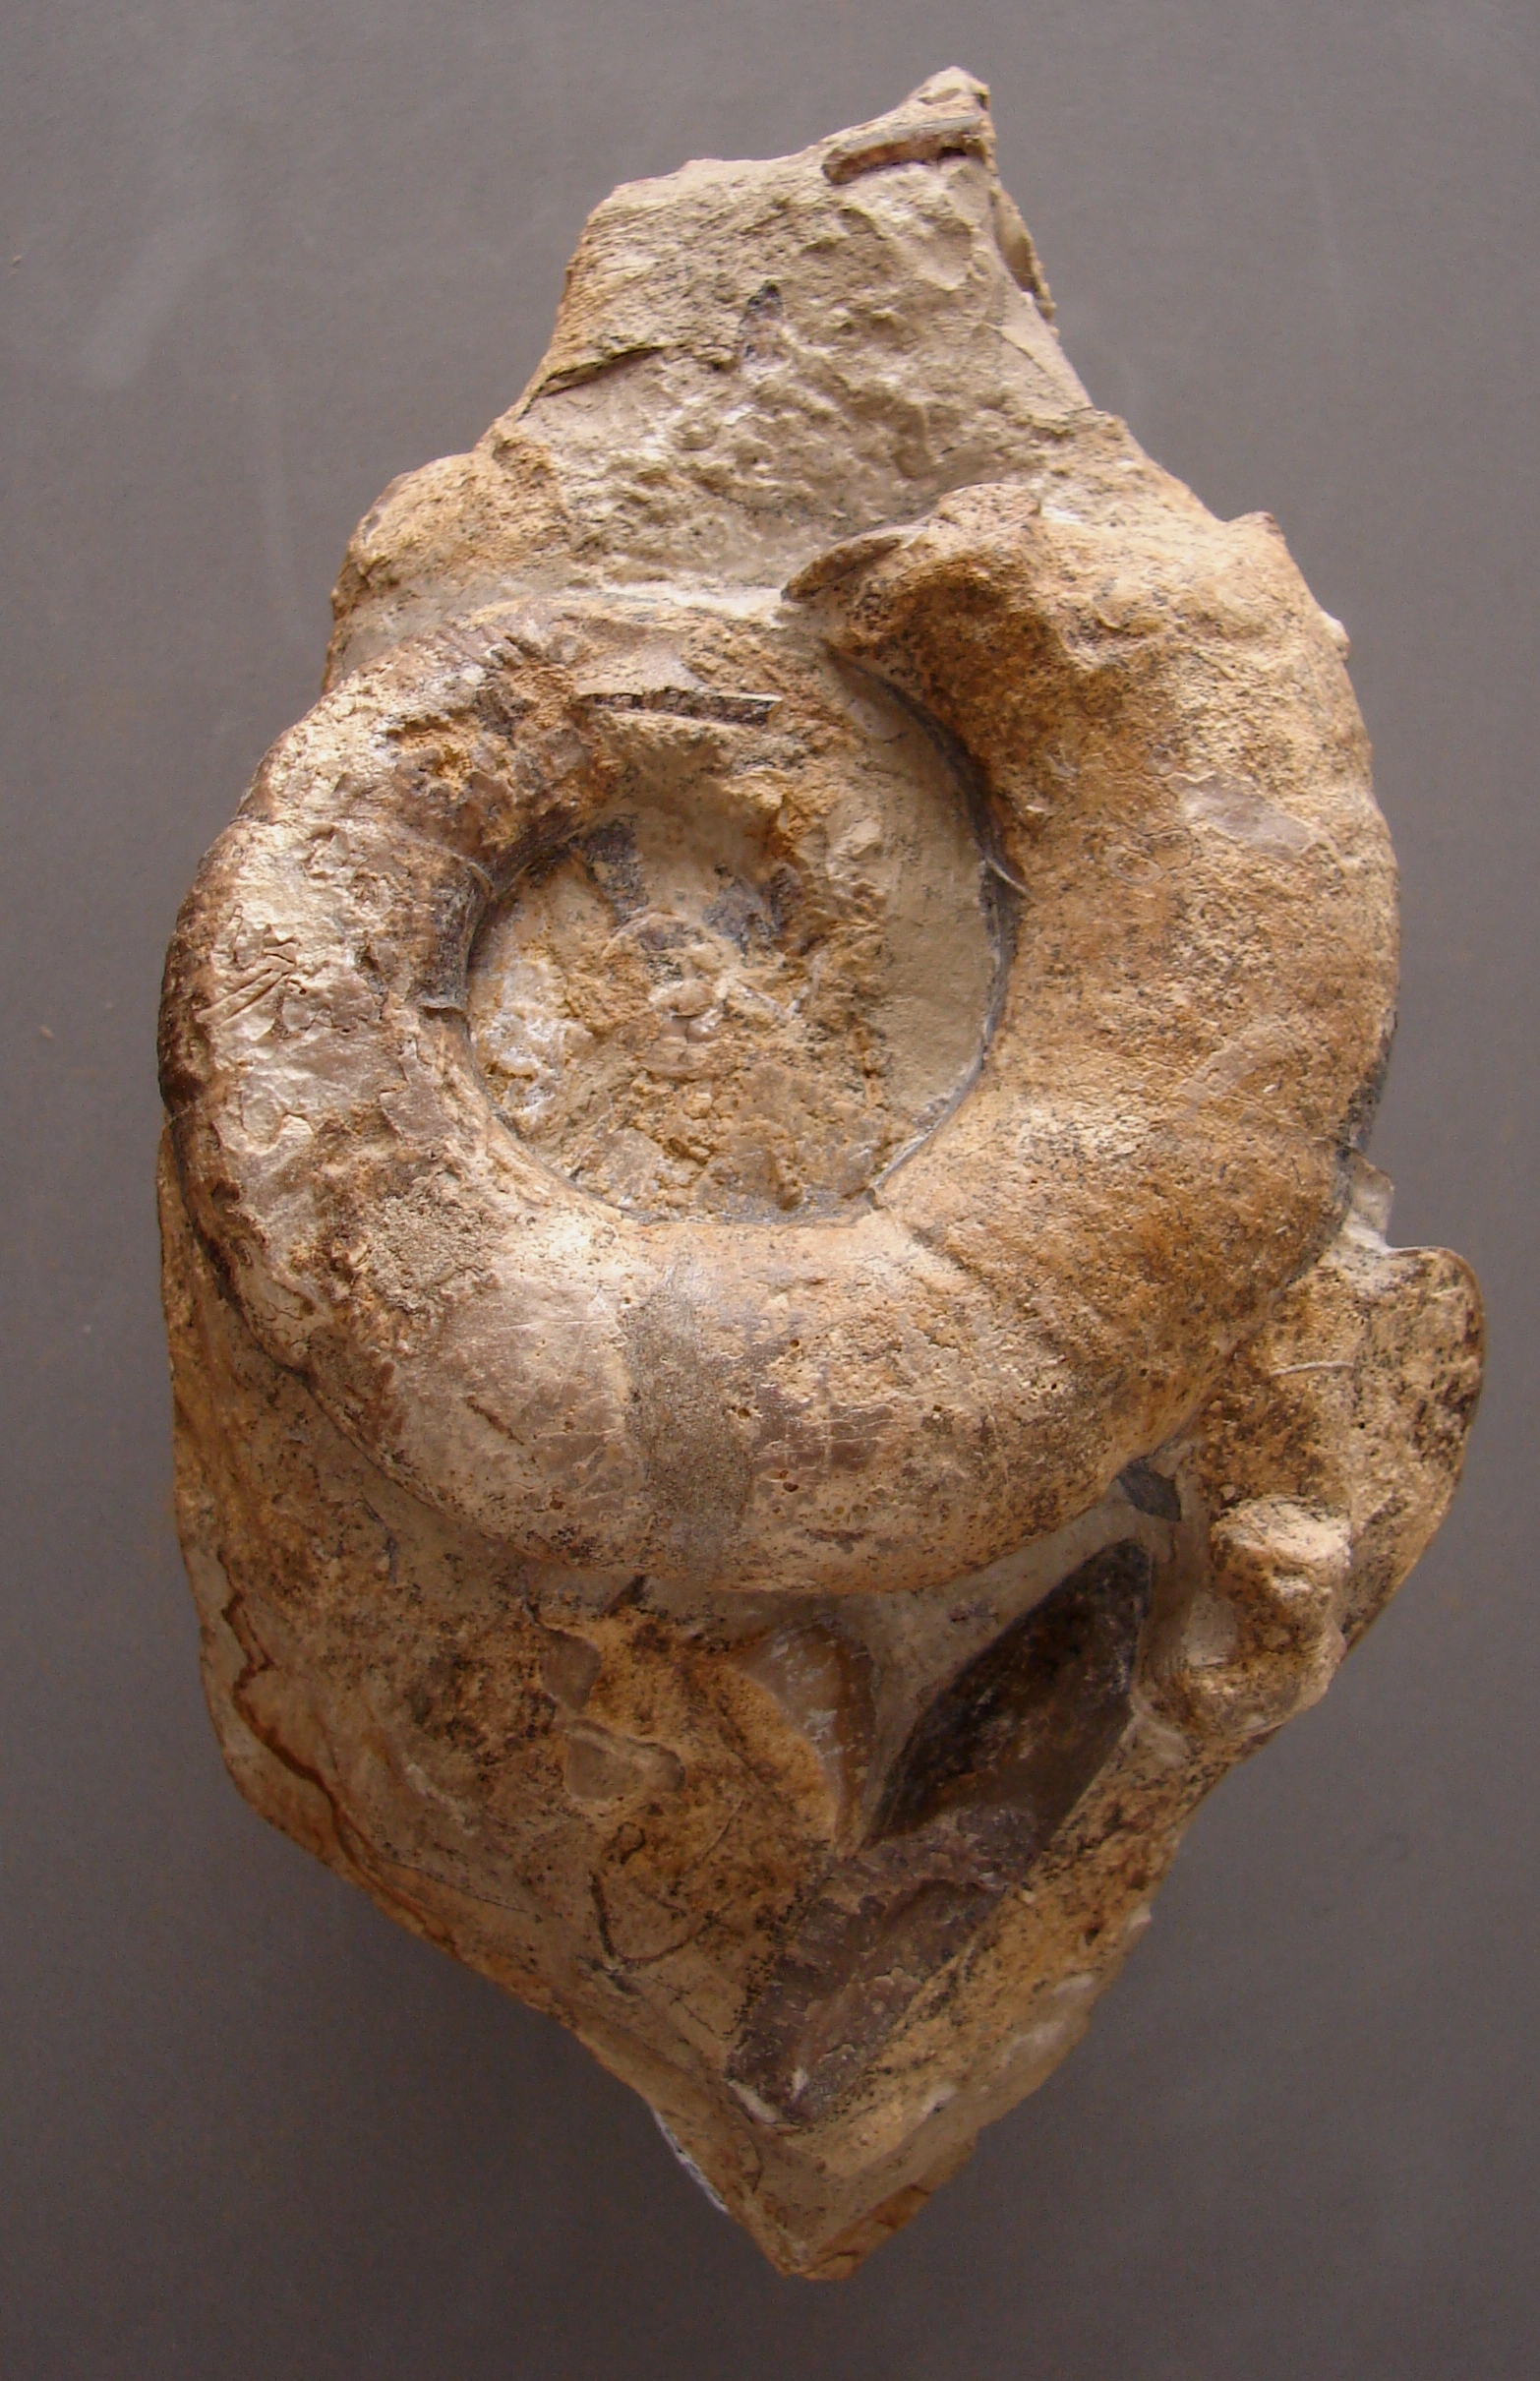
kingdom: Animalia
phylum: Mollusca
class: Cephalopoda
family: Lytoceratidae
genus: Lytoceras
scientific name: Lytoceras fimbriatum
